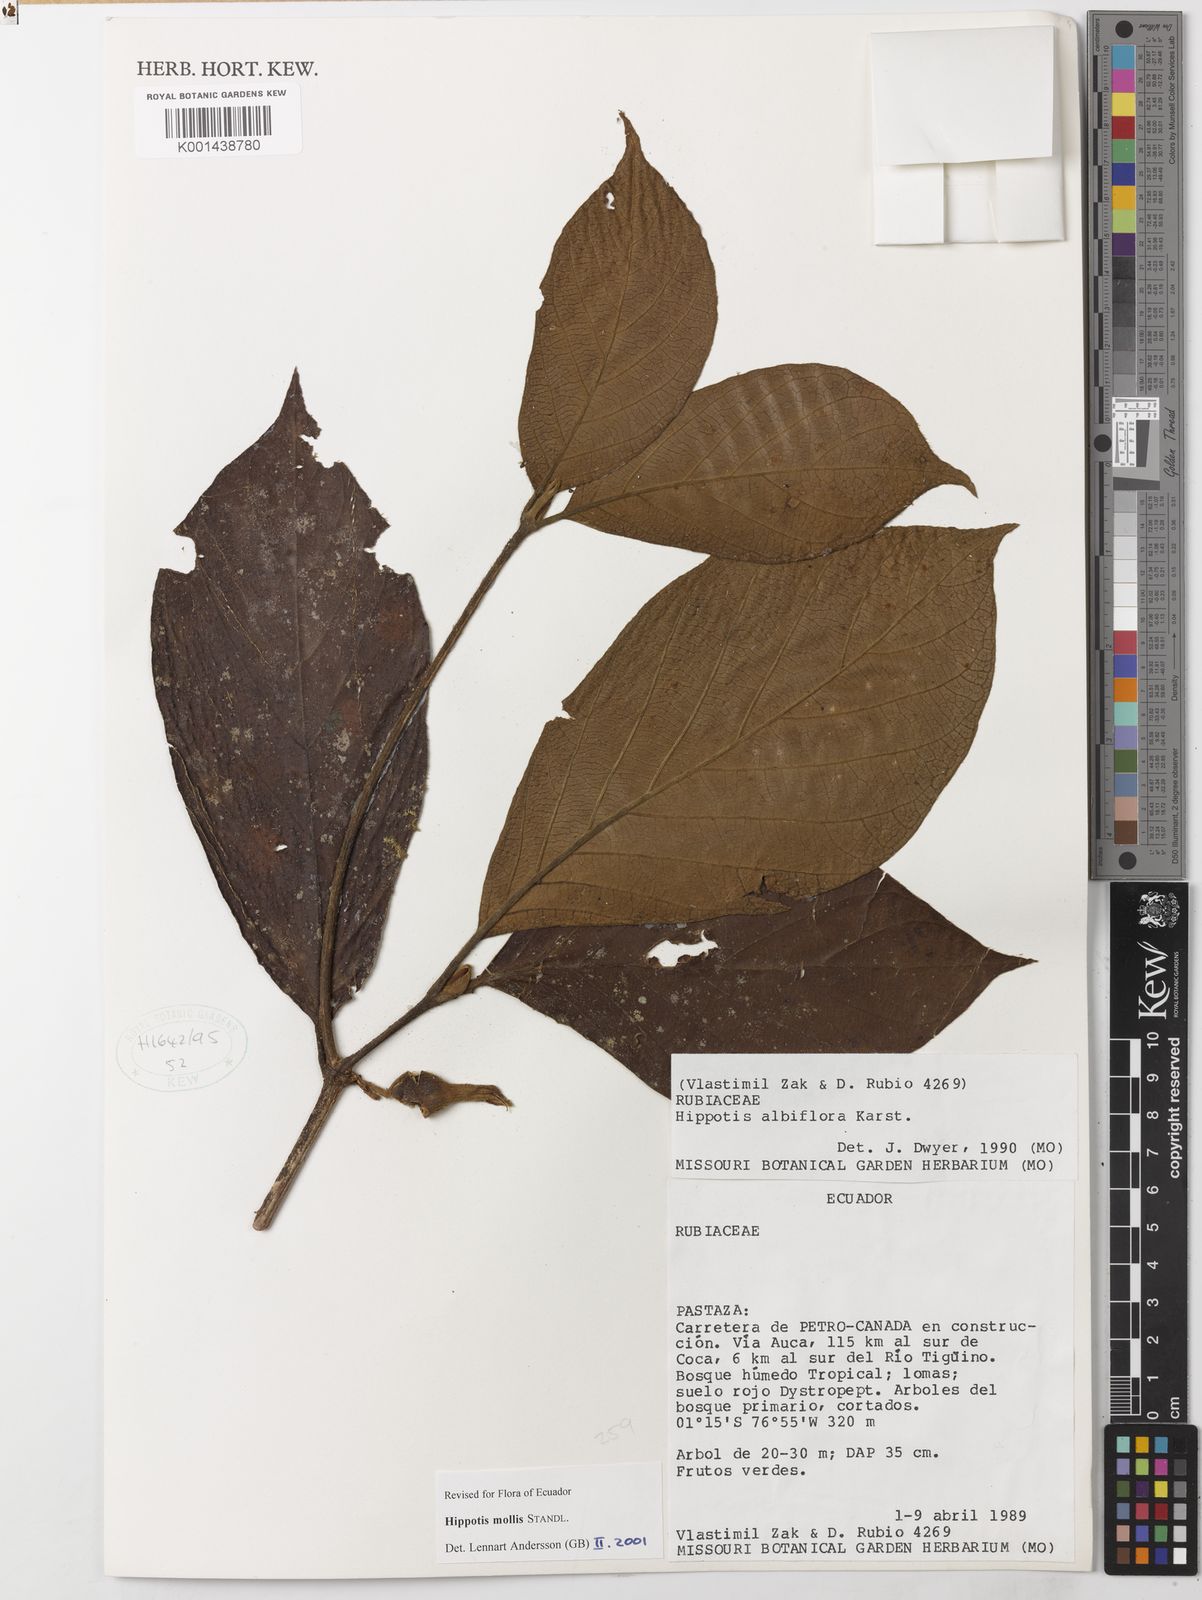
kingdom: Plantae
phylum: Tracheophyta
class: Magnoliopsida
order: Gentianales
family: Rubiaceae
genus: Hippotis
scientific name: Hippotis mollis
